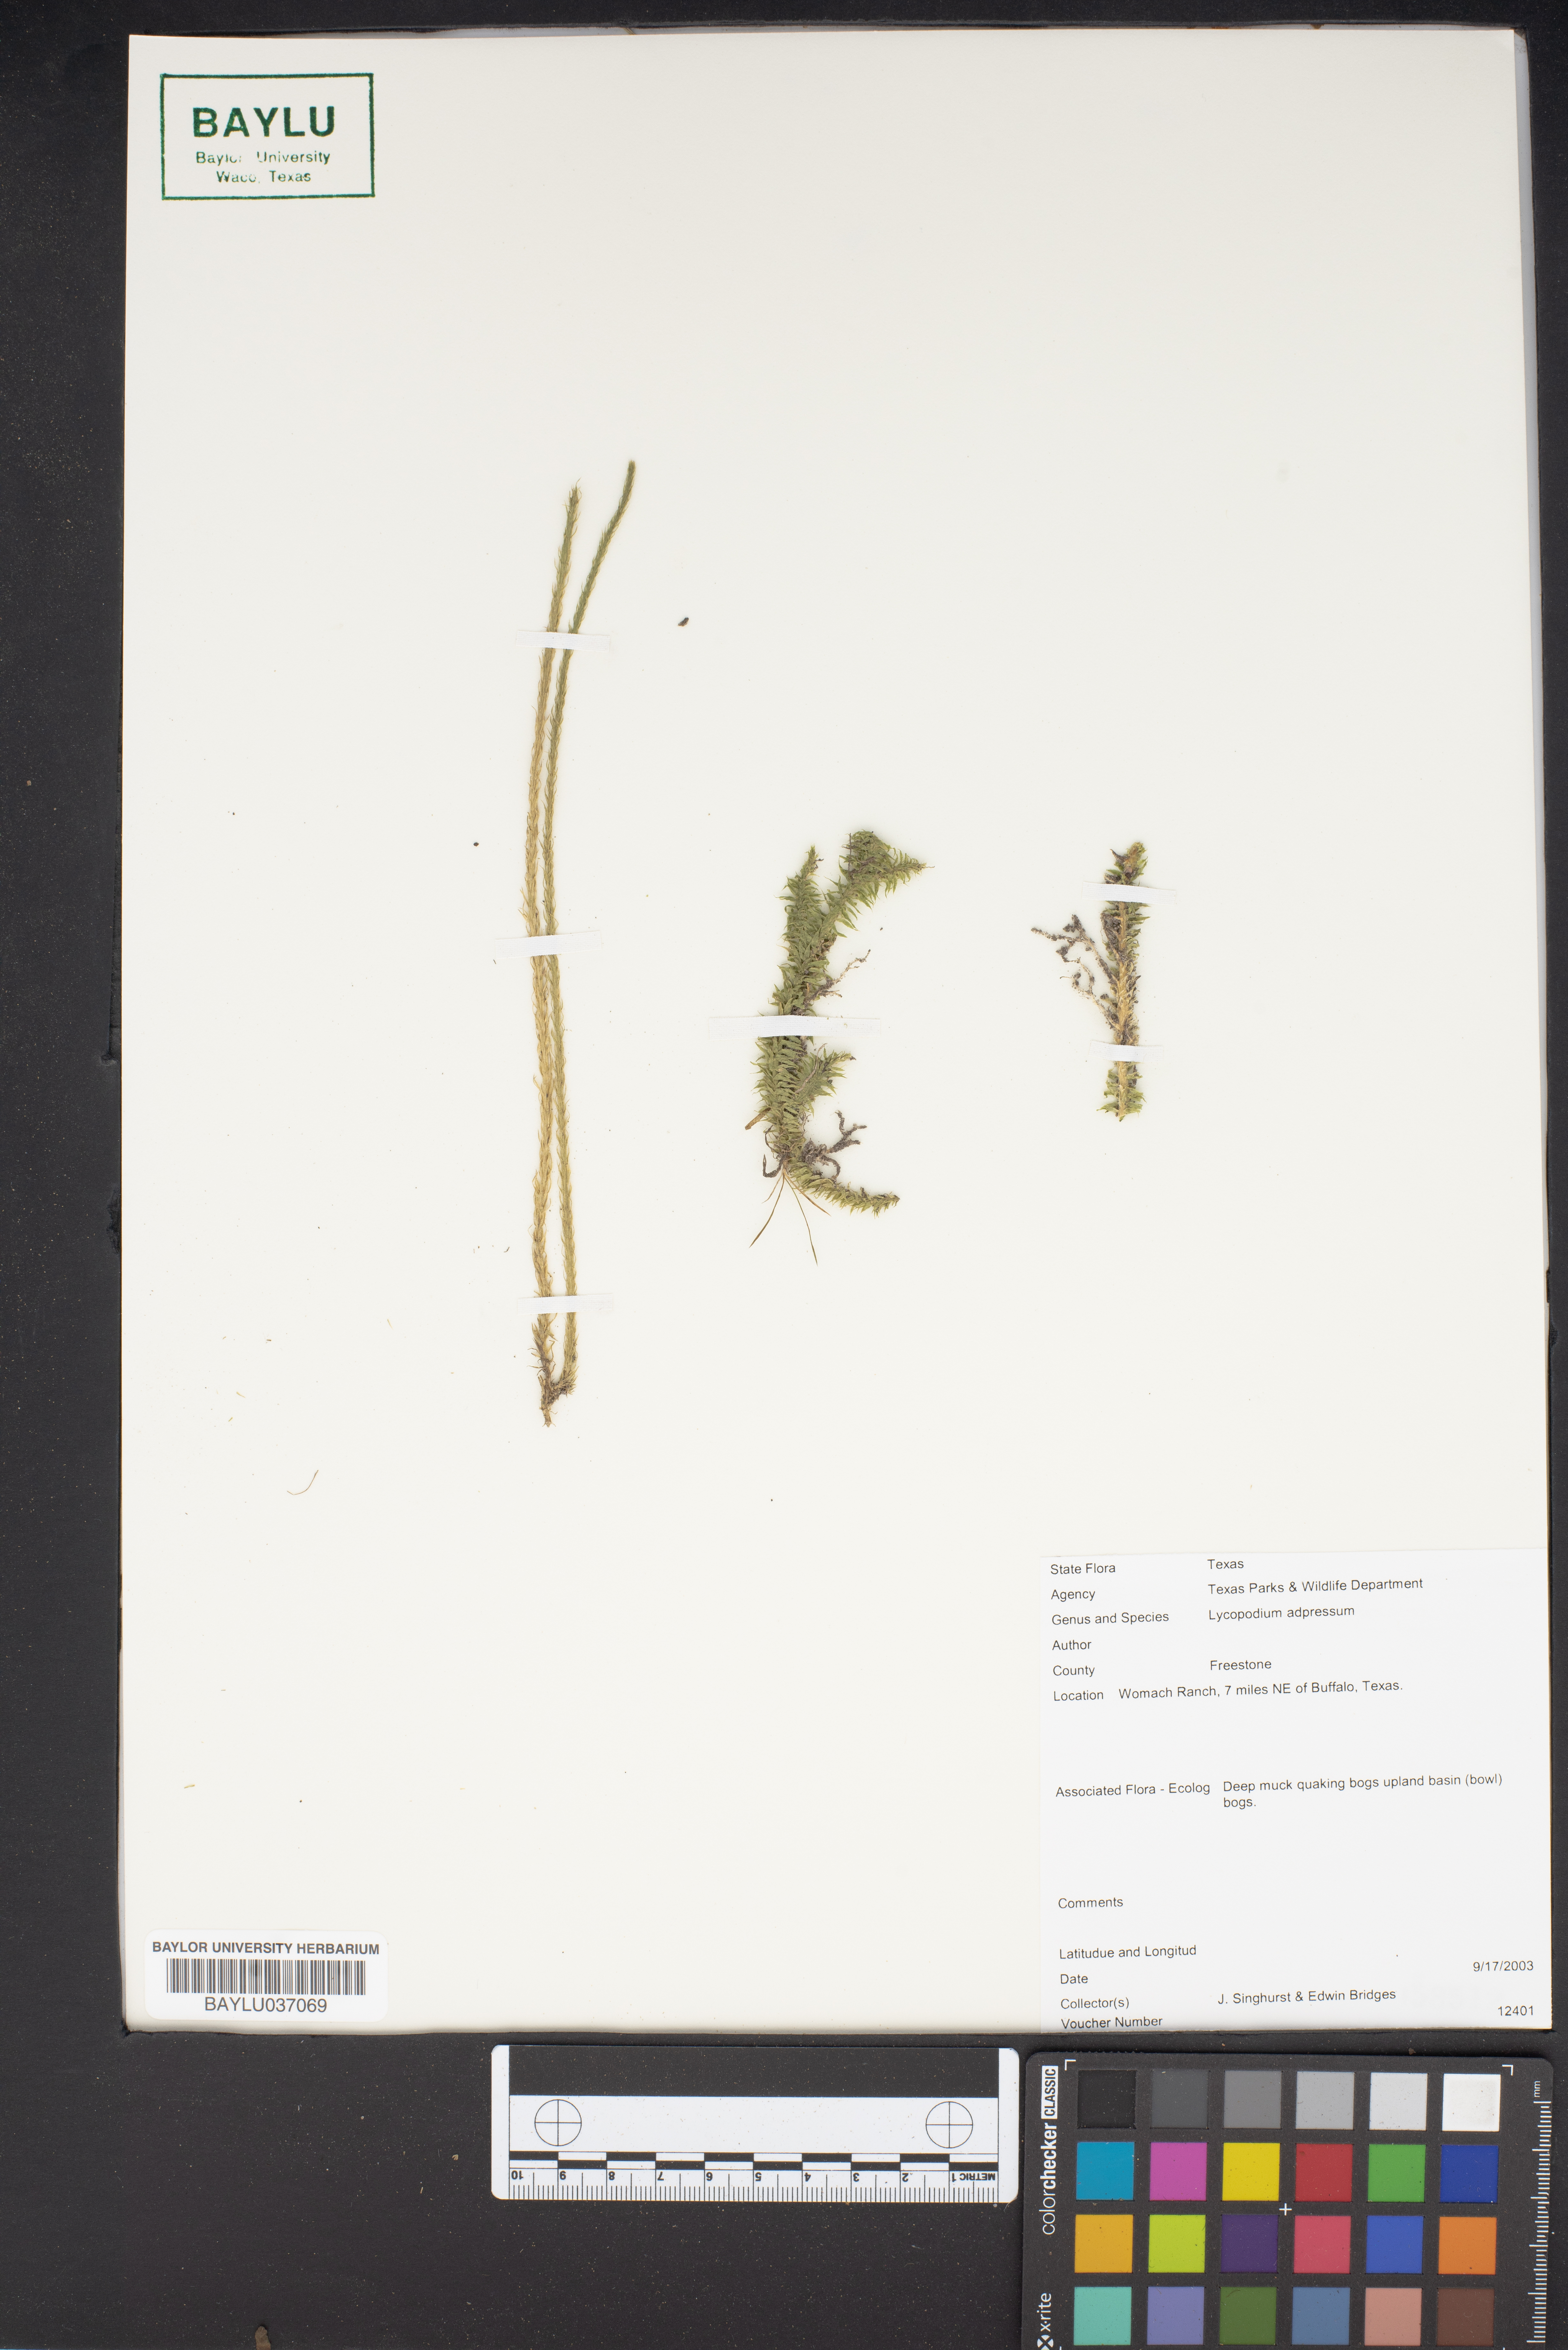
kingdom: Plantae
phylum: Tracheophyta
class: Lycopodiopsida
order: Lycopodiales
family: Lycopodiaceae
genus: Lycopodiella
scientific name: Lycopodiella appressa
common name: Appressed bog clubmoss
